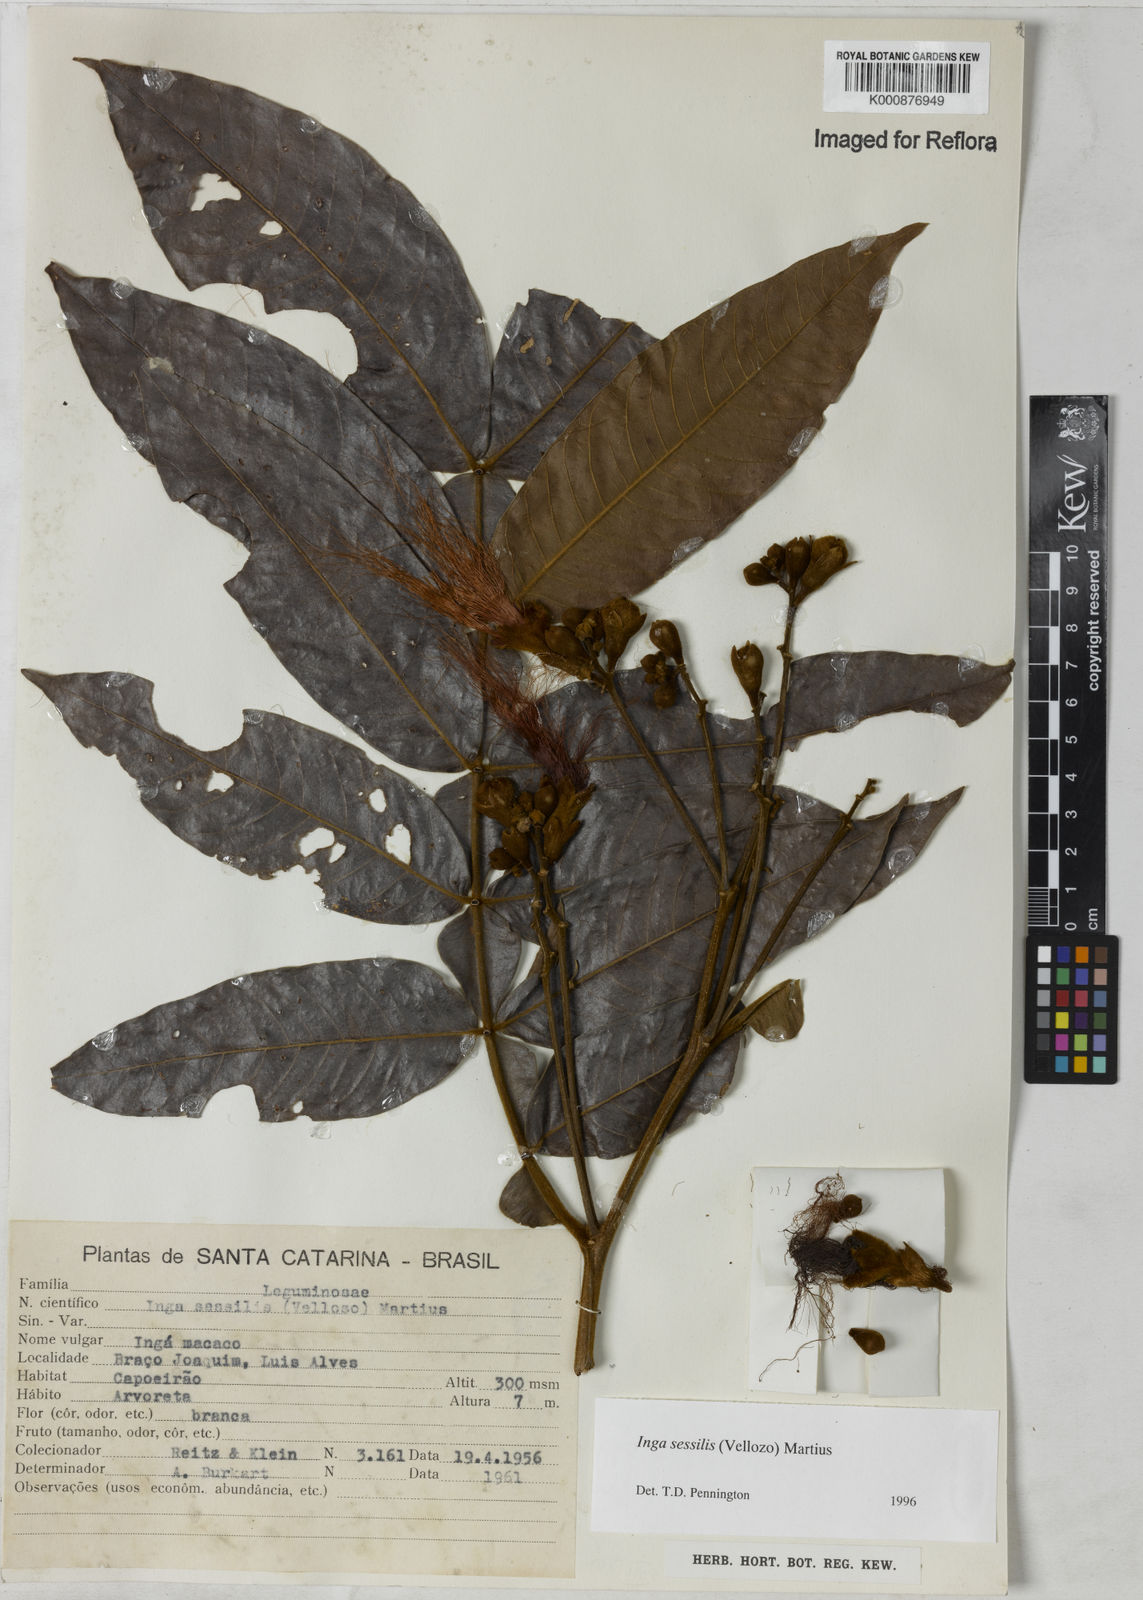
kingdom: Plantae
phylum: Tracheophyta
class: Magnoliopsida
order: Fabales
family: Fabaceae
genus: Inga
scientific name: Inga sessilis
